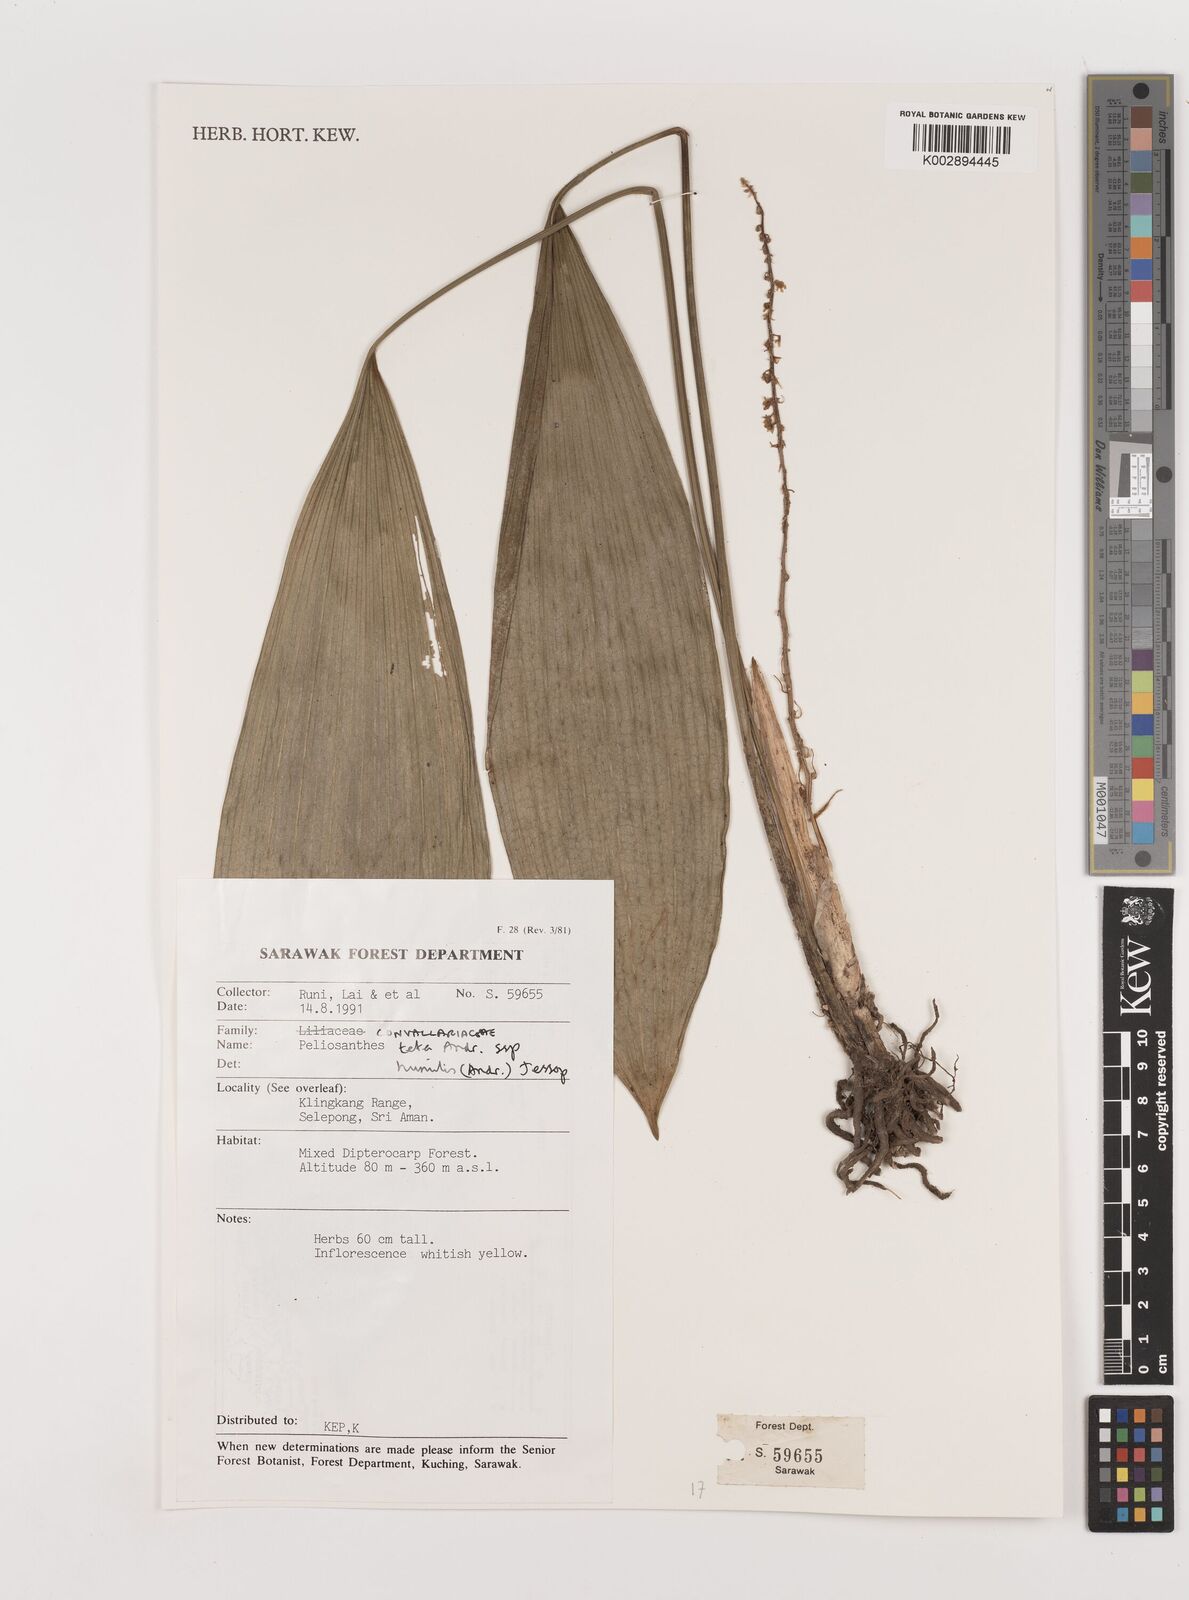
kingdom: Plantae
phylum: Tracheophyta
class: Liliopsida
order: Asparagales
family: Asparagaceae
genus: Peliosanthes
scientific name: Peliosanthes teta
